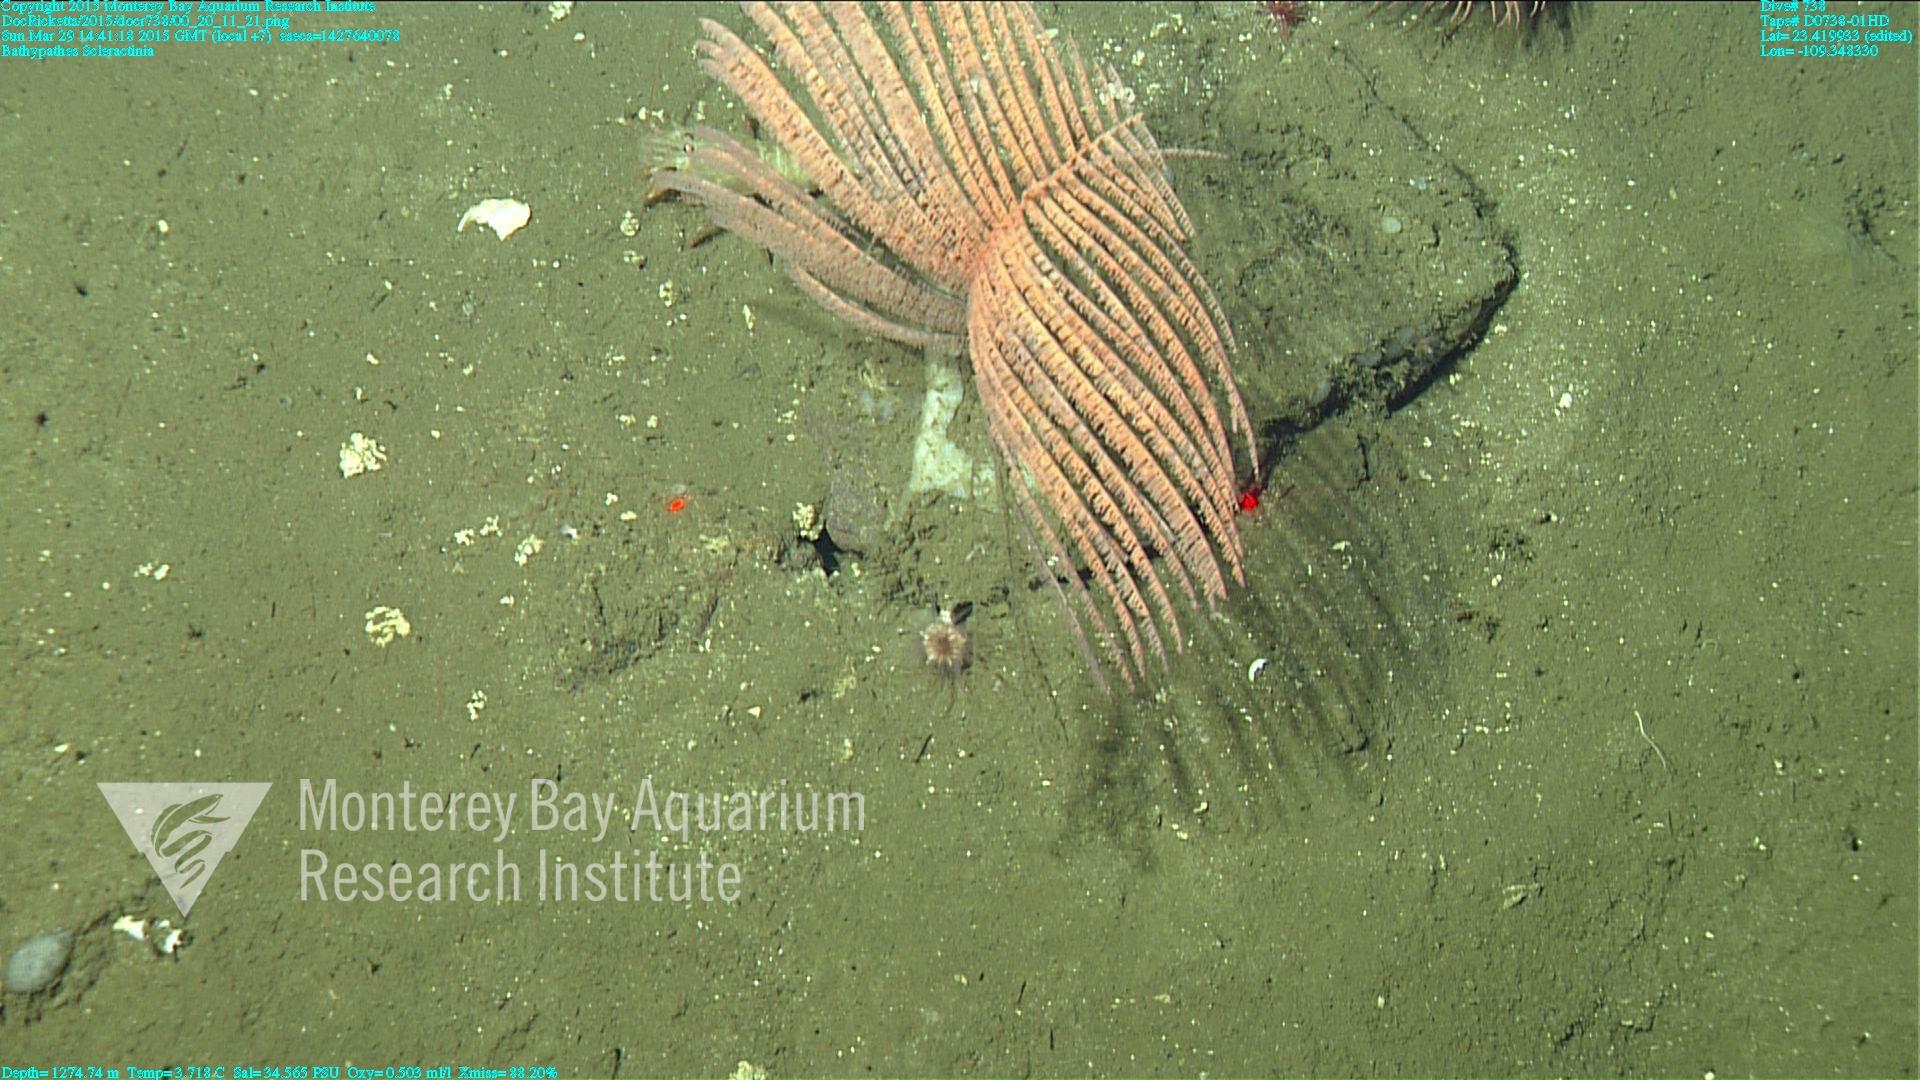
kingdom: Animalia
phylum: Cnidaria
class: Anthozoa
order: Scleractinia
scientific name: Scleractinia
